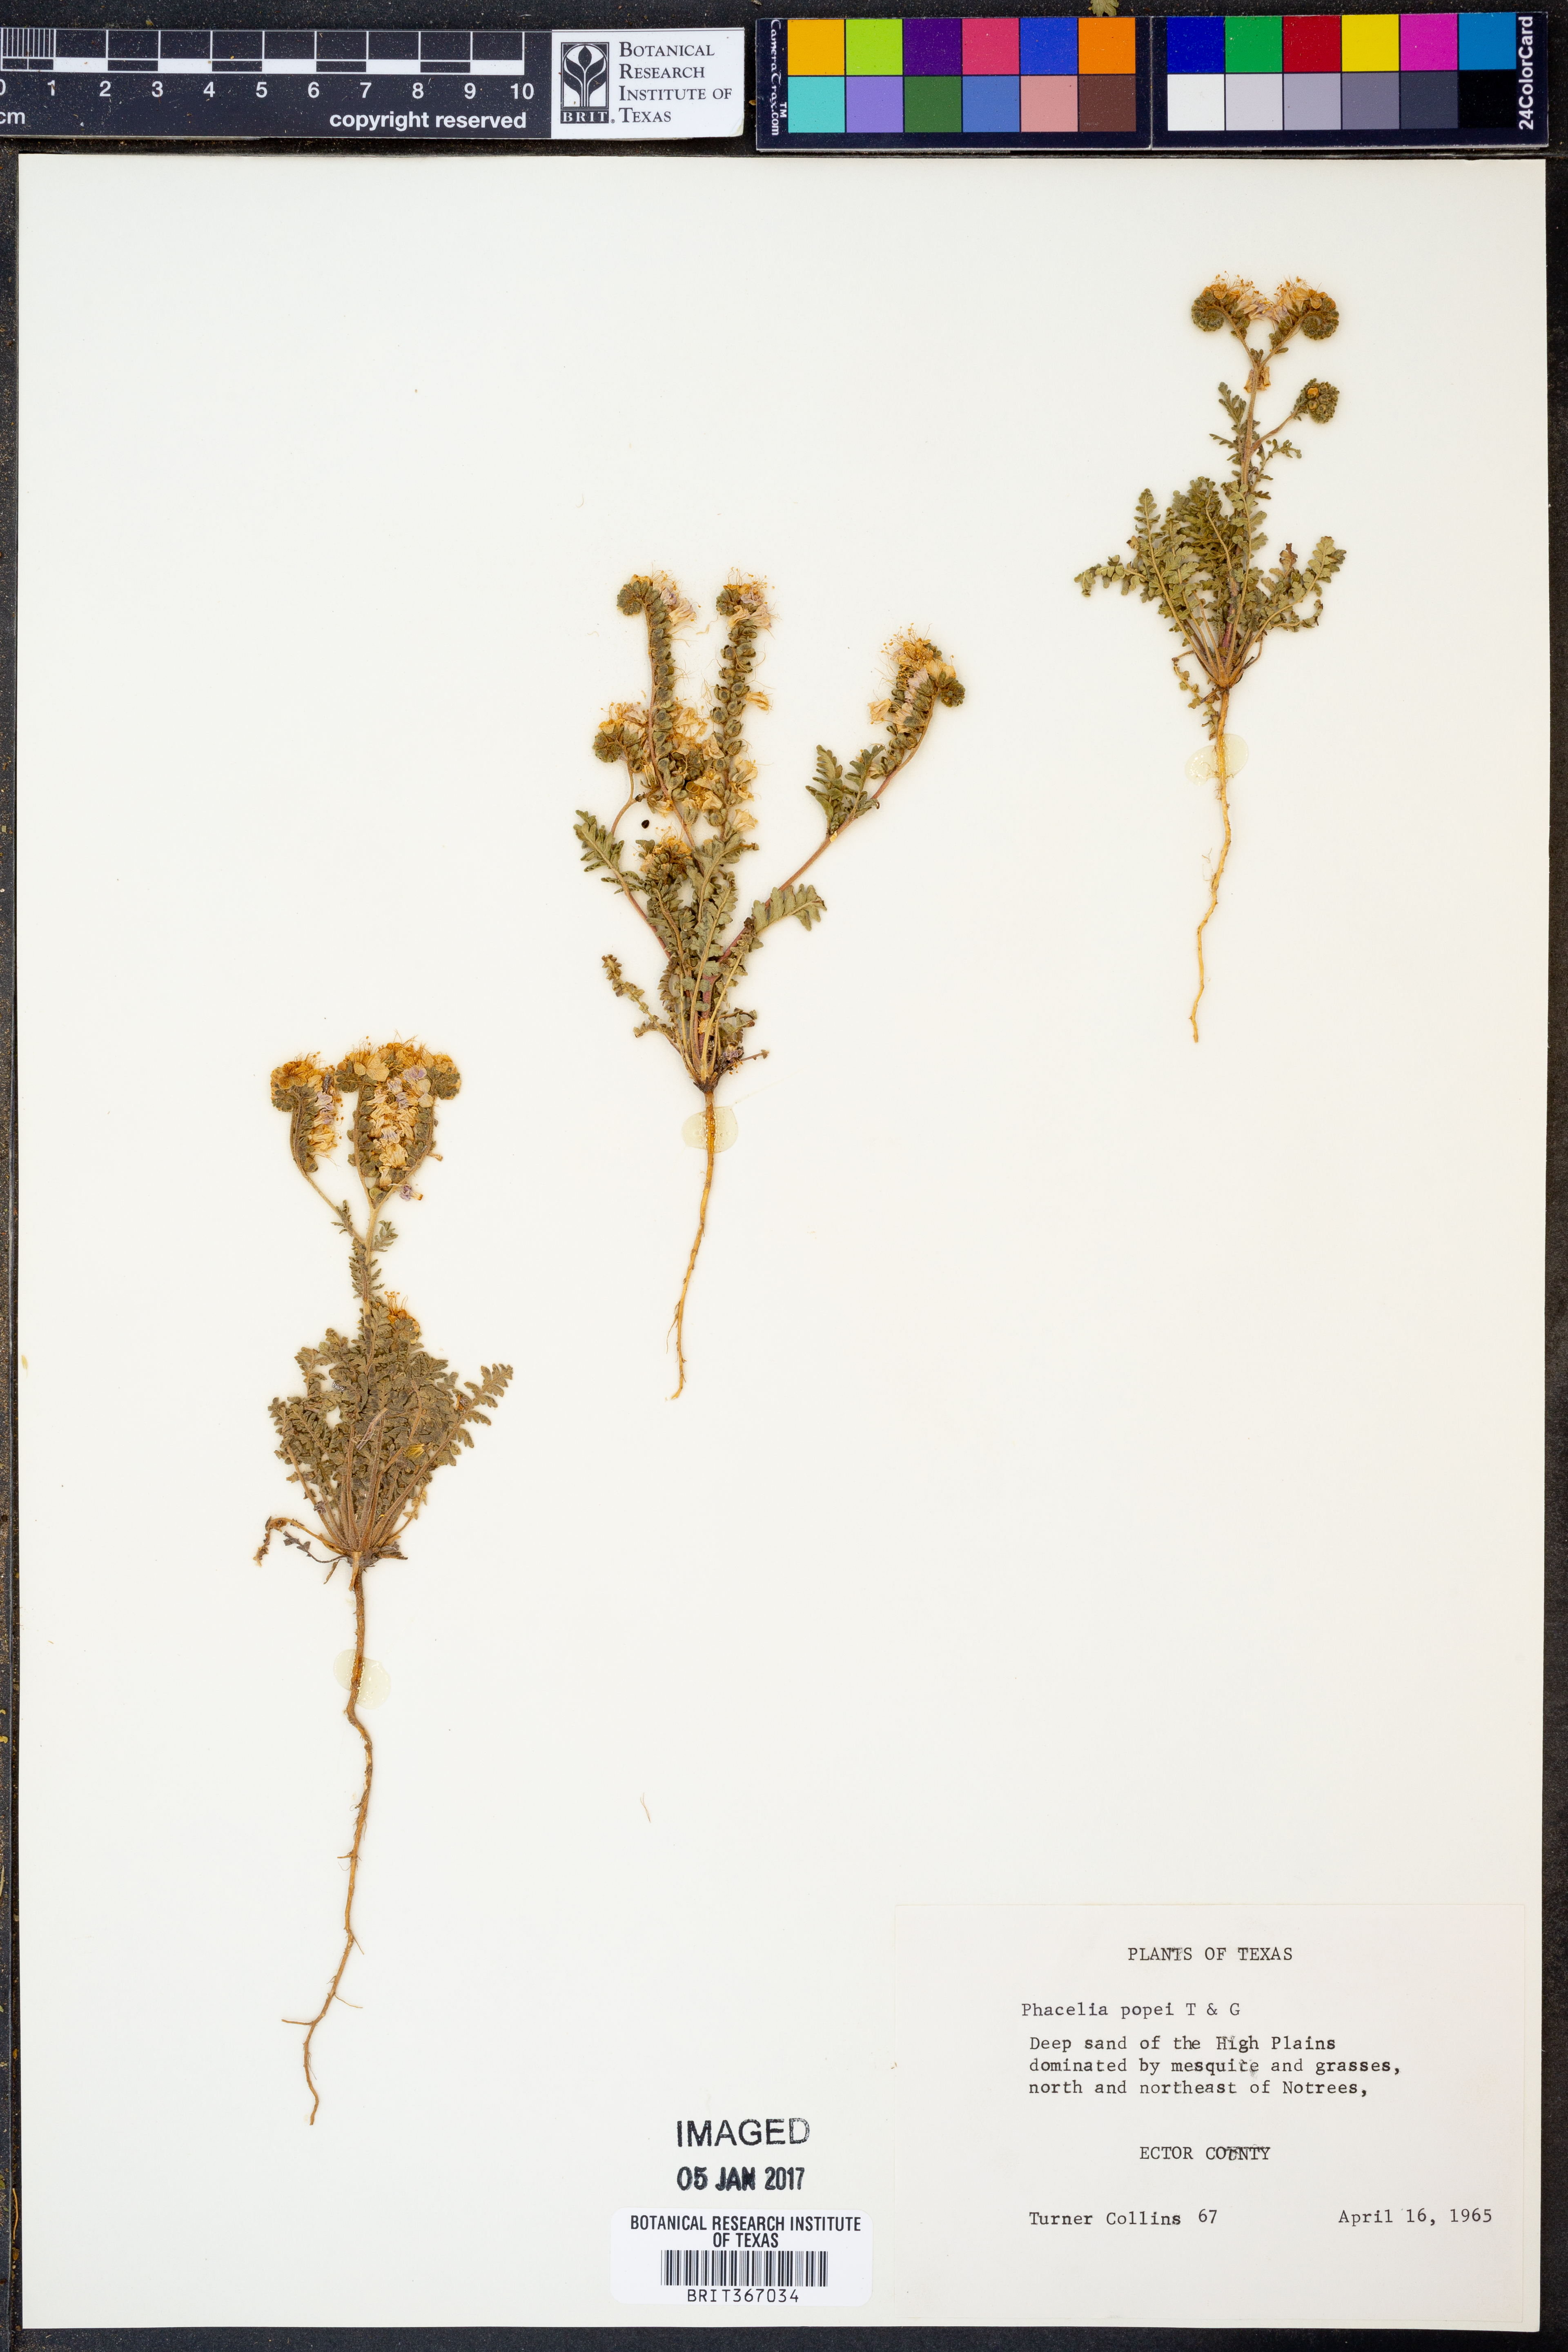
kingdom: Plantae
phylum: Tracheophyta
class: Magnoliopsida
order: Boraginales
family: Hydrophyllaceae
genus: Phacelia
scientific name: Phacelia popei
